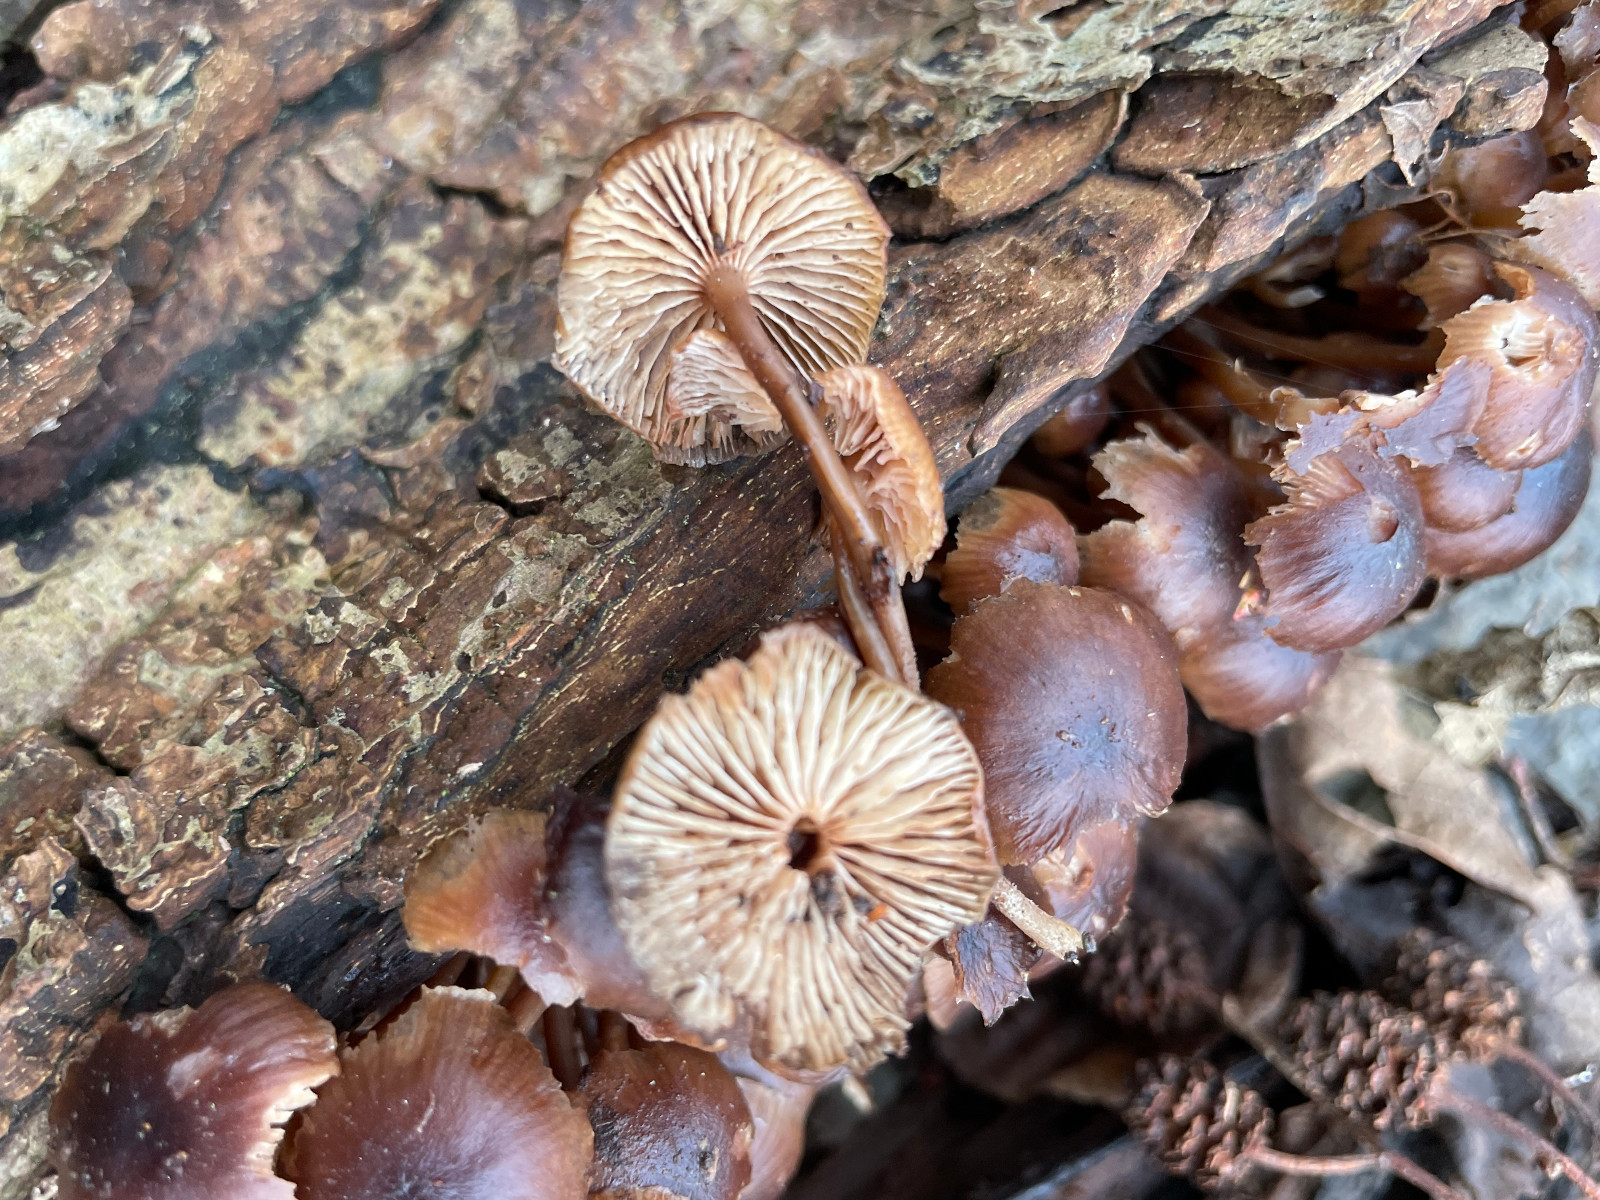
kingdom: Fungi
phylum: Basidiomycota
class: Agaricomycetes
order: Agaricales
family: Mycenaceae
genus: Mycena
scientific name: Mycena tintinnabulum
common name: vinter-huesvamp
